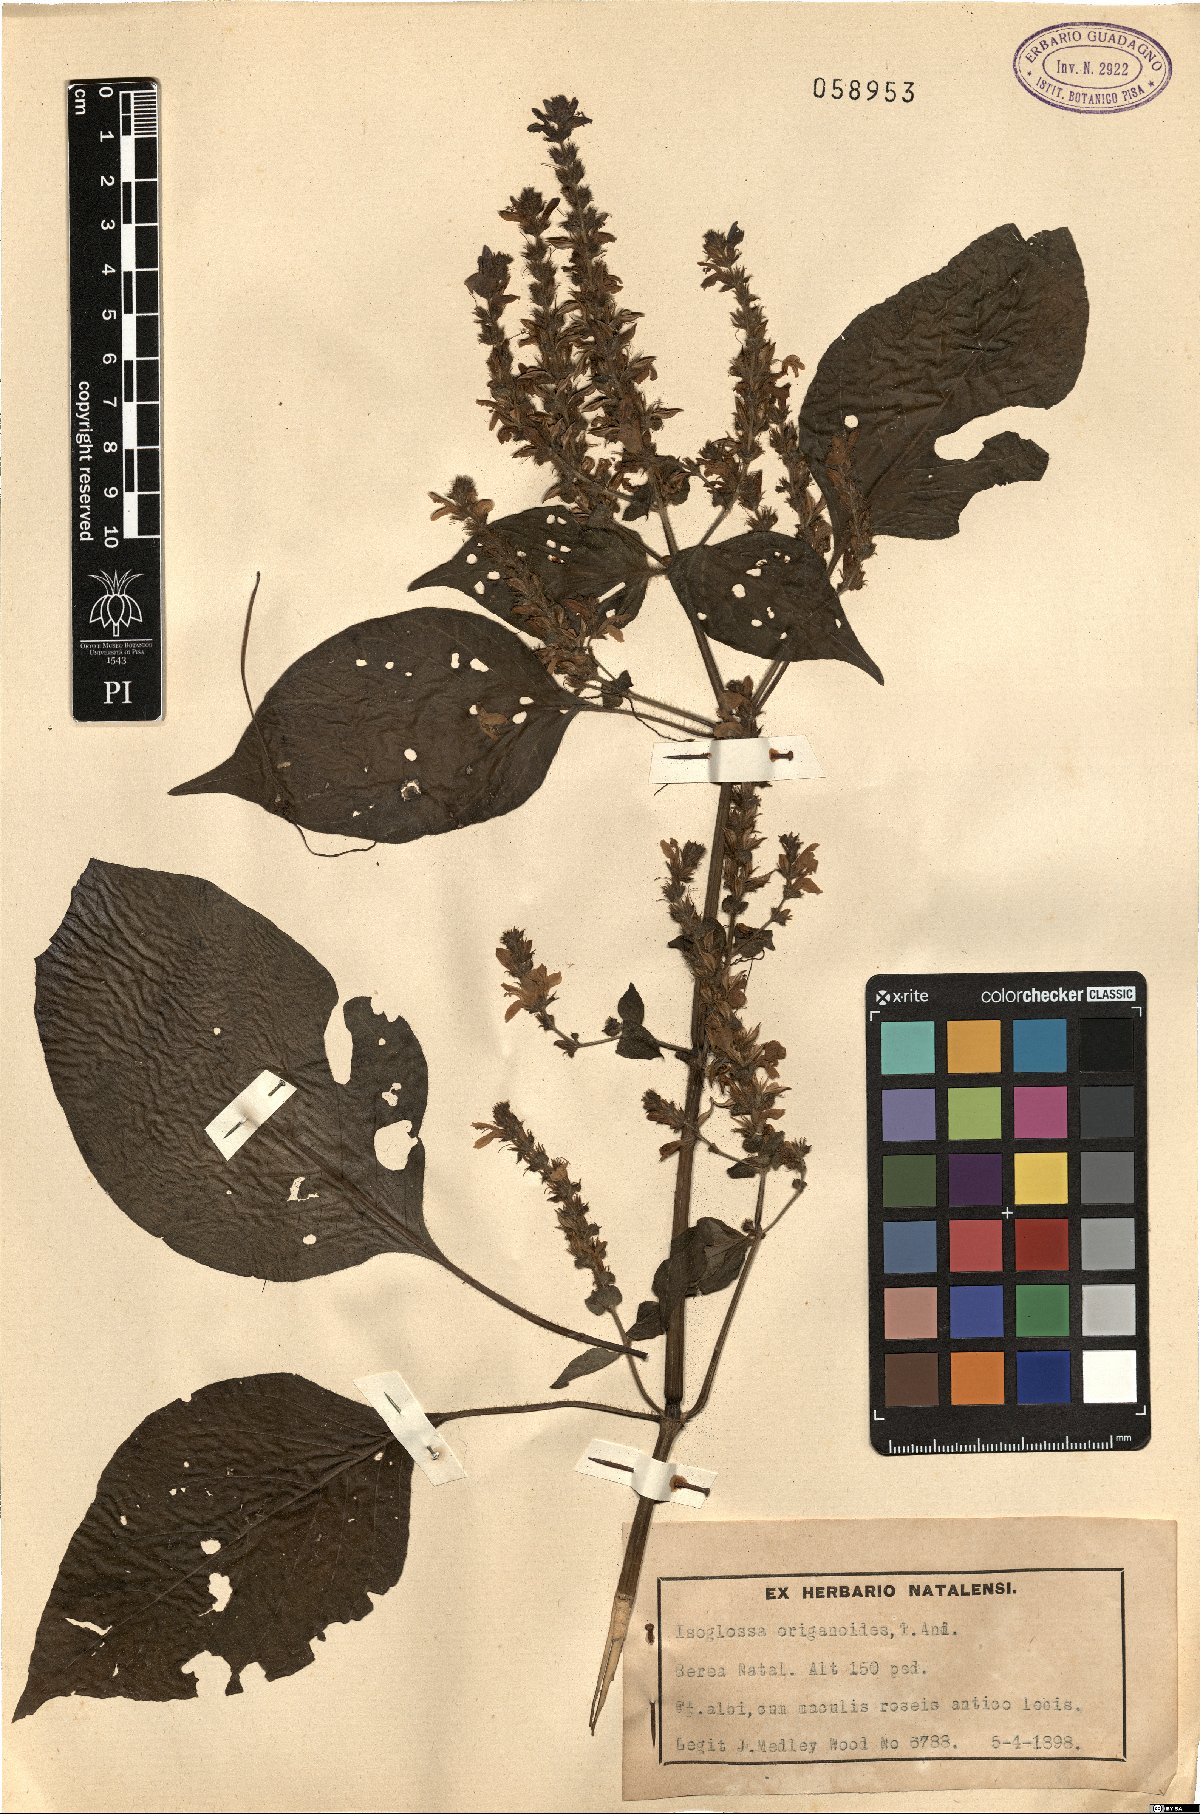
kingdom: Plantae
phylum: Tracheophyta
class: Magnoliopsida
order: Lamiales
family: Acanthaceae
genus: Isoglossa
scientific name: Isoglossa origanoides
